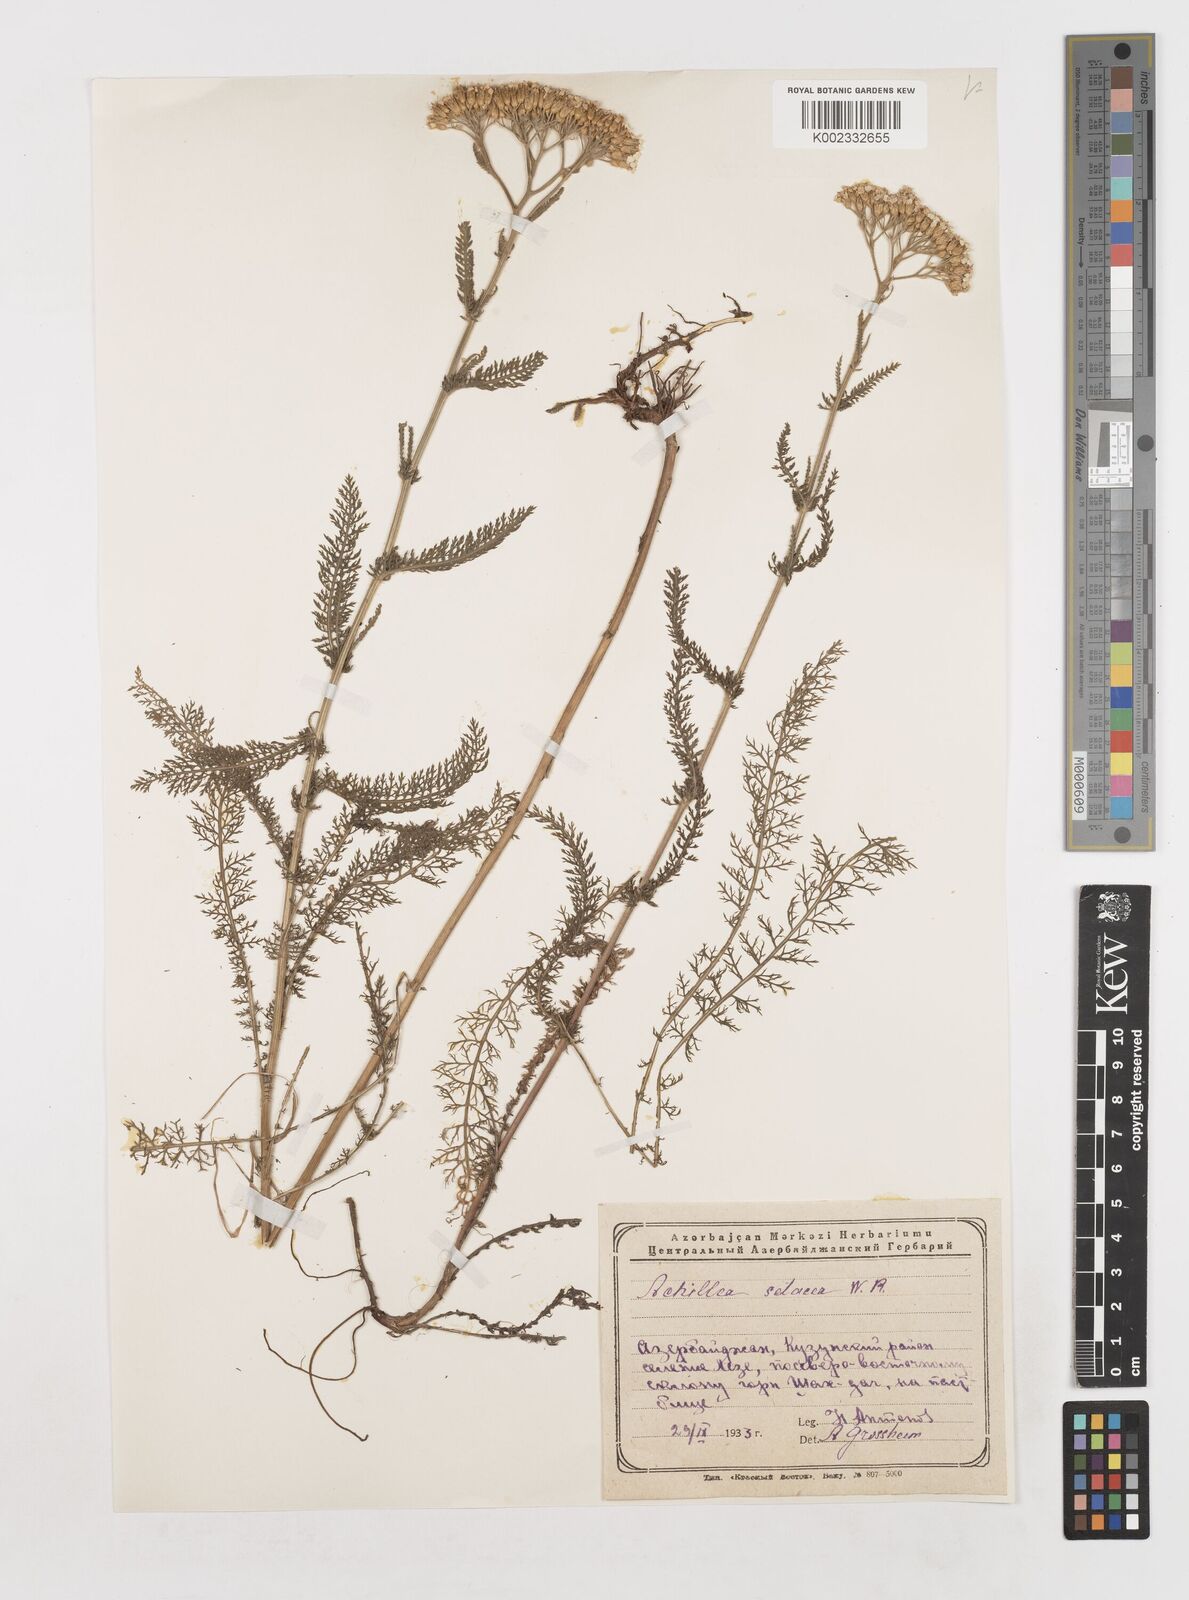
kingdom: Plantae
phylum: Tracheophyta
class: Magnoliopsida
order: Asterales
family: Asteraceae
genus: Achillea
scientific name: Achillea nobilis
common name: Noble yarrow
